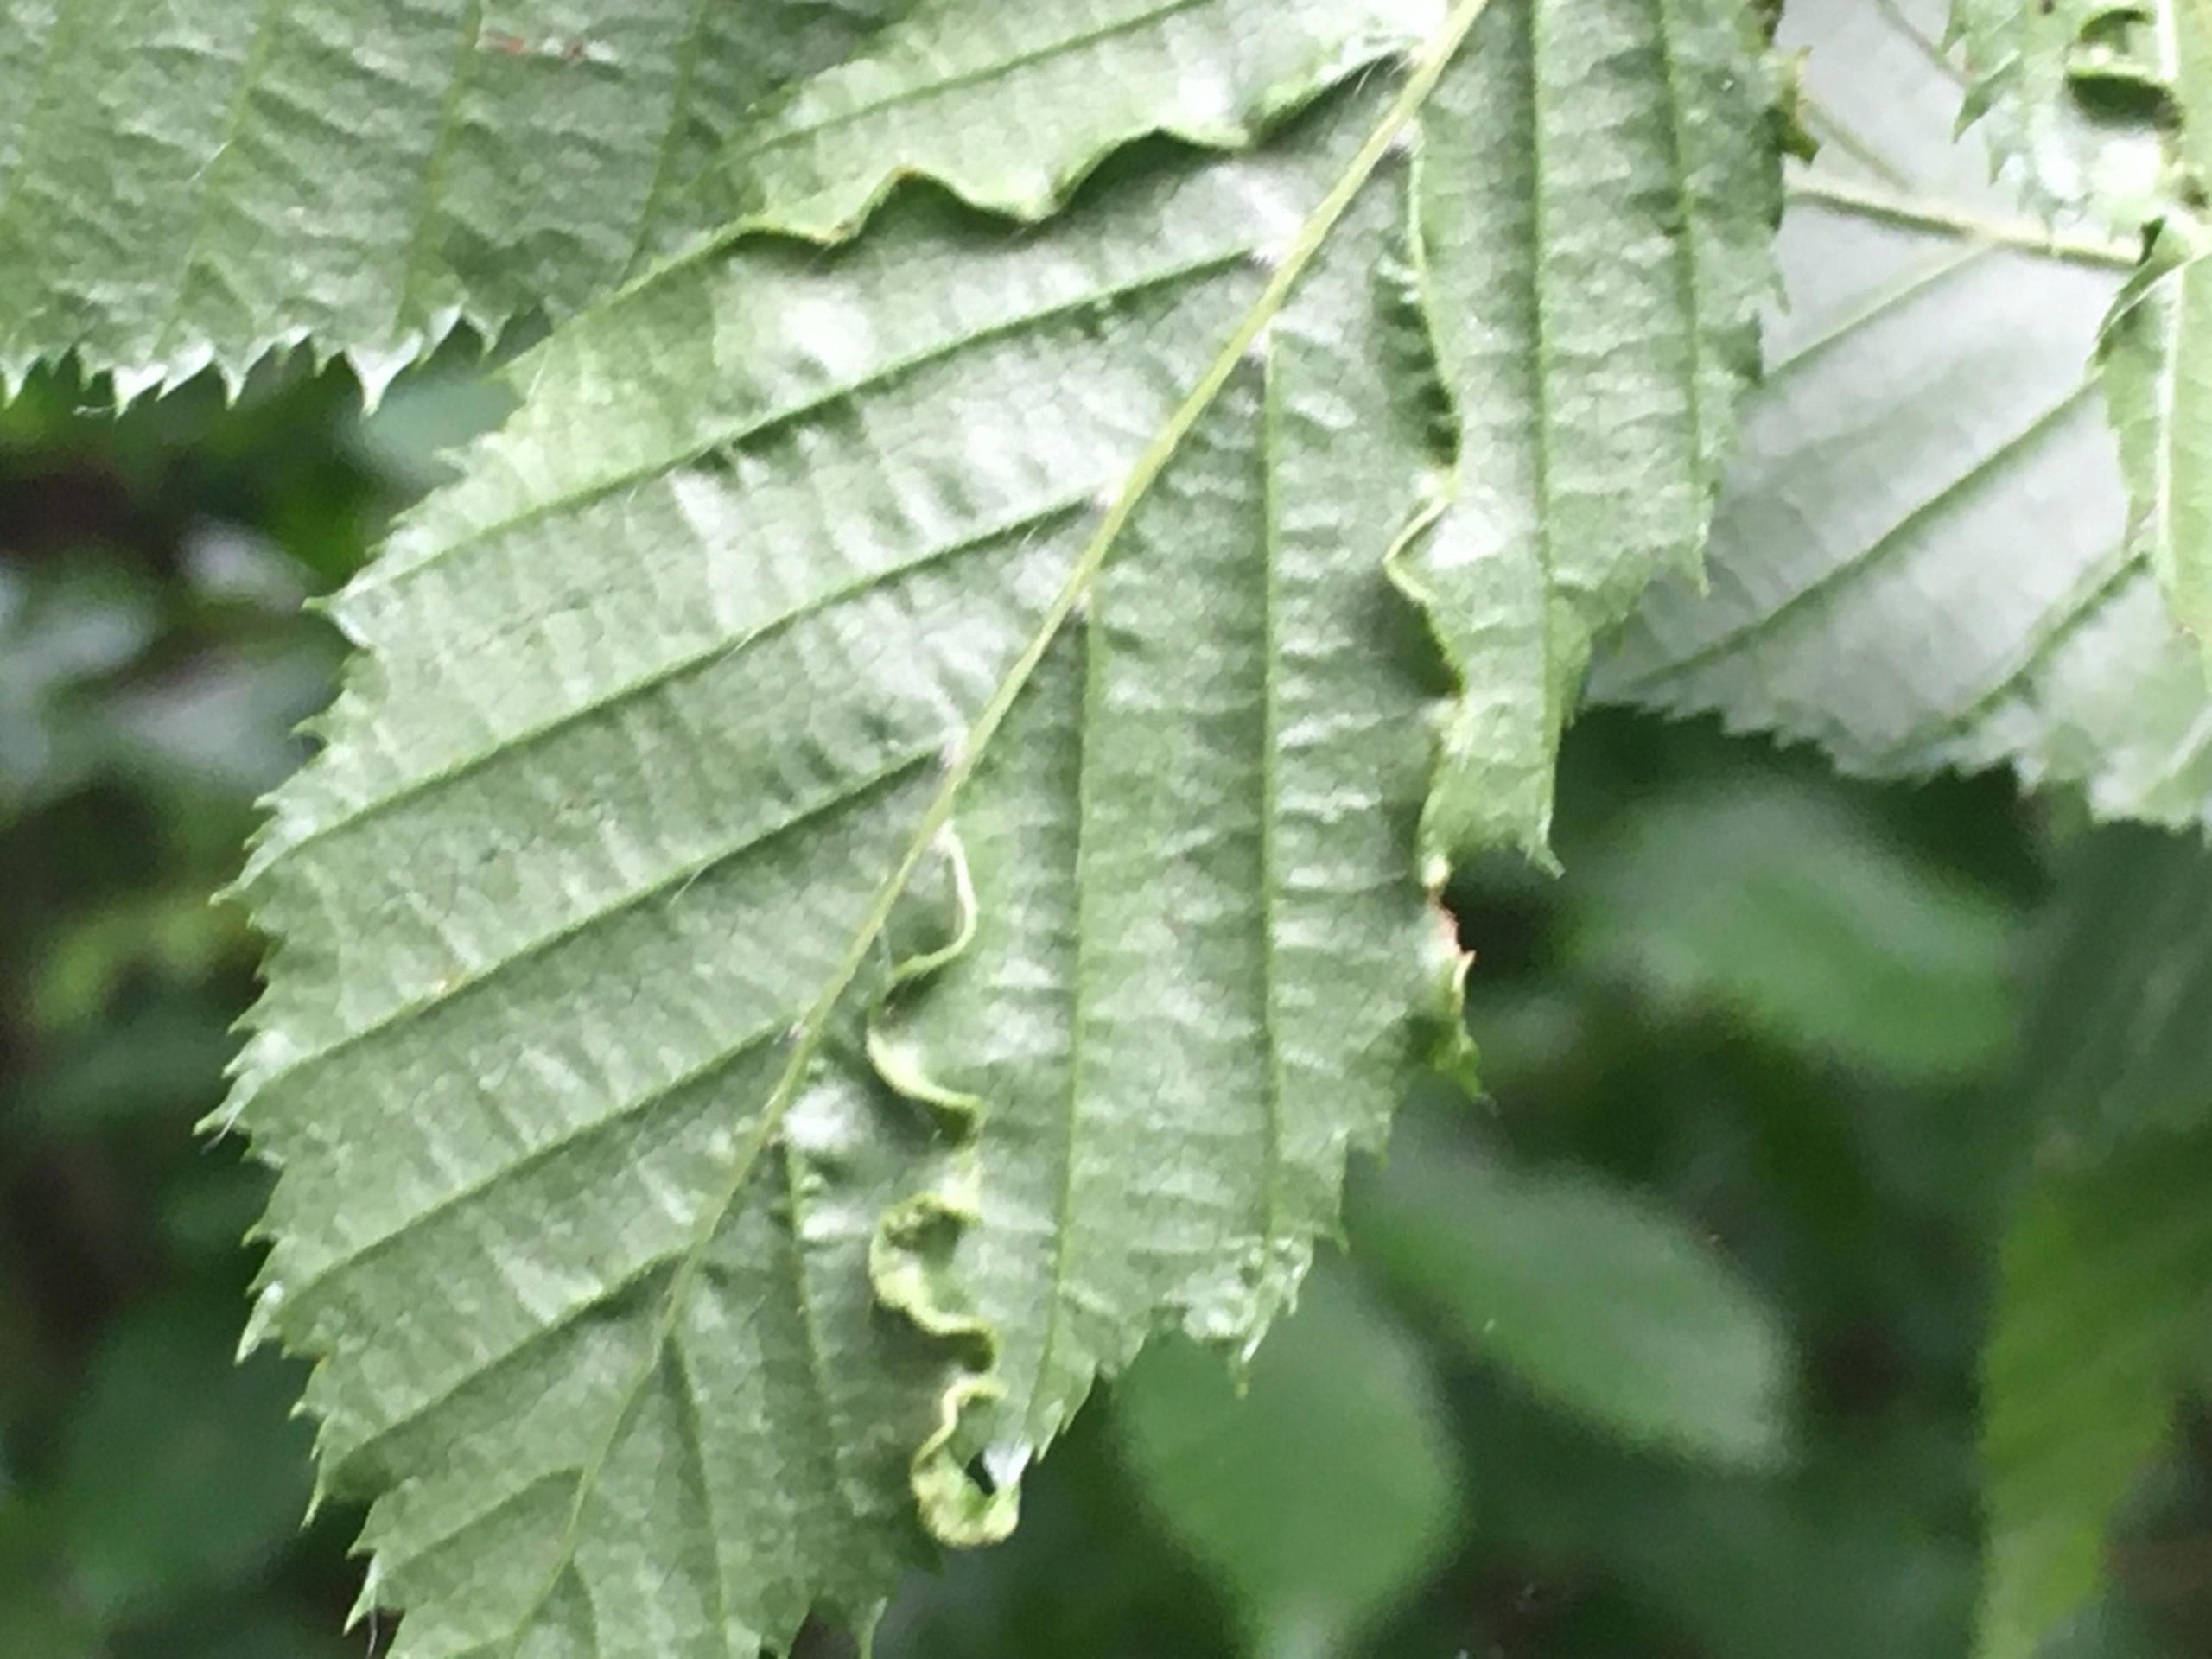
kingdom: Animalia
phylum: Arthropoda
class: Arachnida
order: Trombidiformes
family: Eriophyidae
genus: Aculops
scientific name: Aculops macrotrichus
